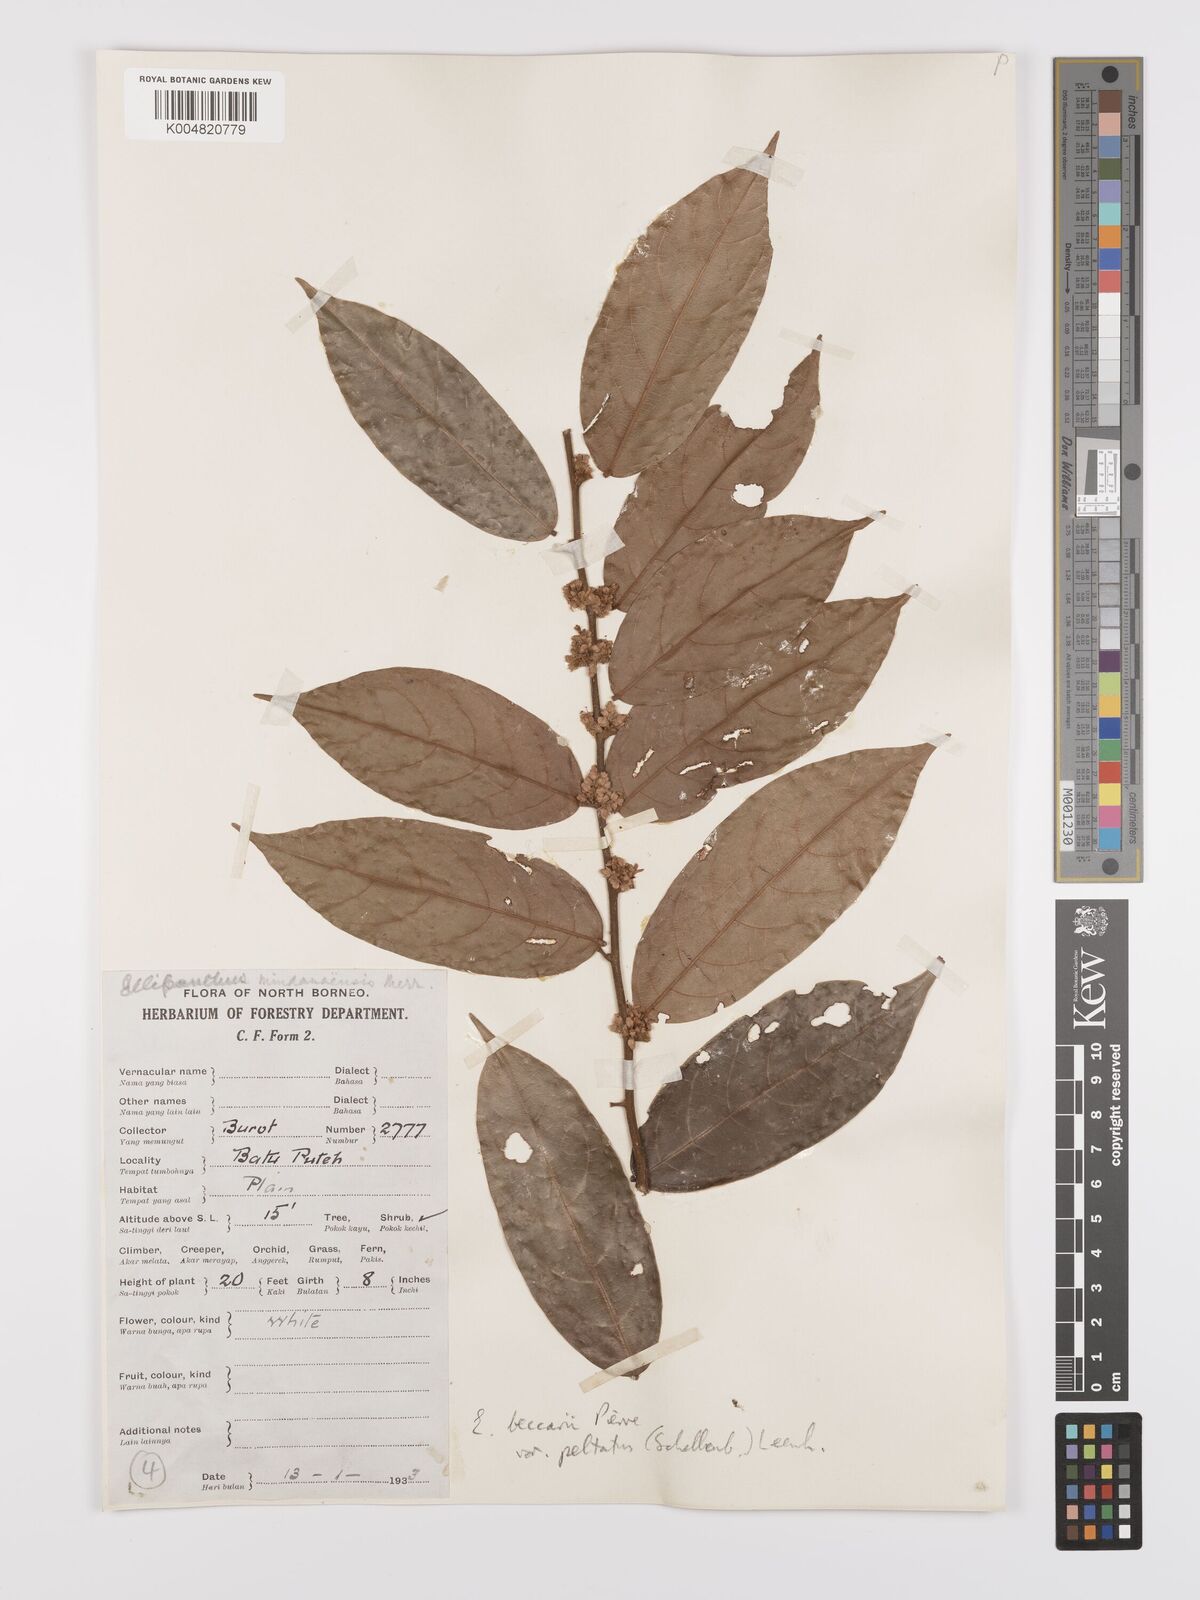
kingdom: Plantae
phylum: Tracheophyta
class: Magnoliopsida
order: Oxalidales
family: Connaraceae
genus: Ellipanthus
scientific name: Ellipanthus beccarii
